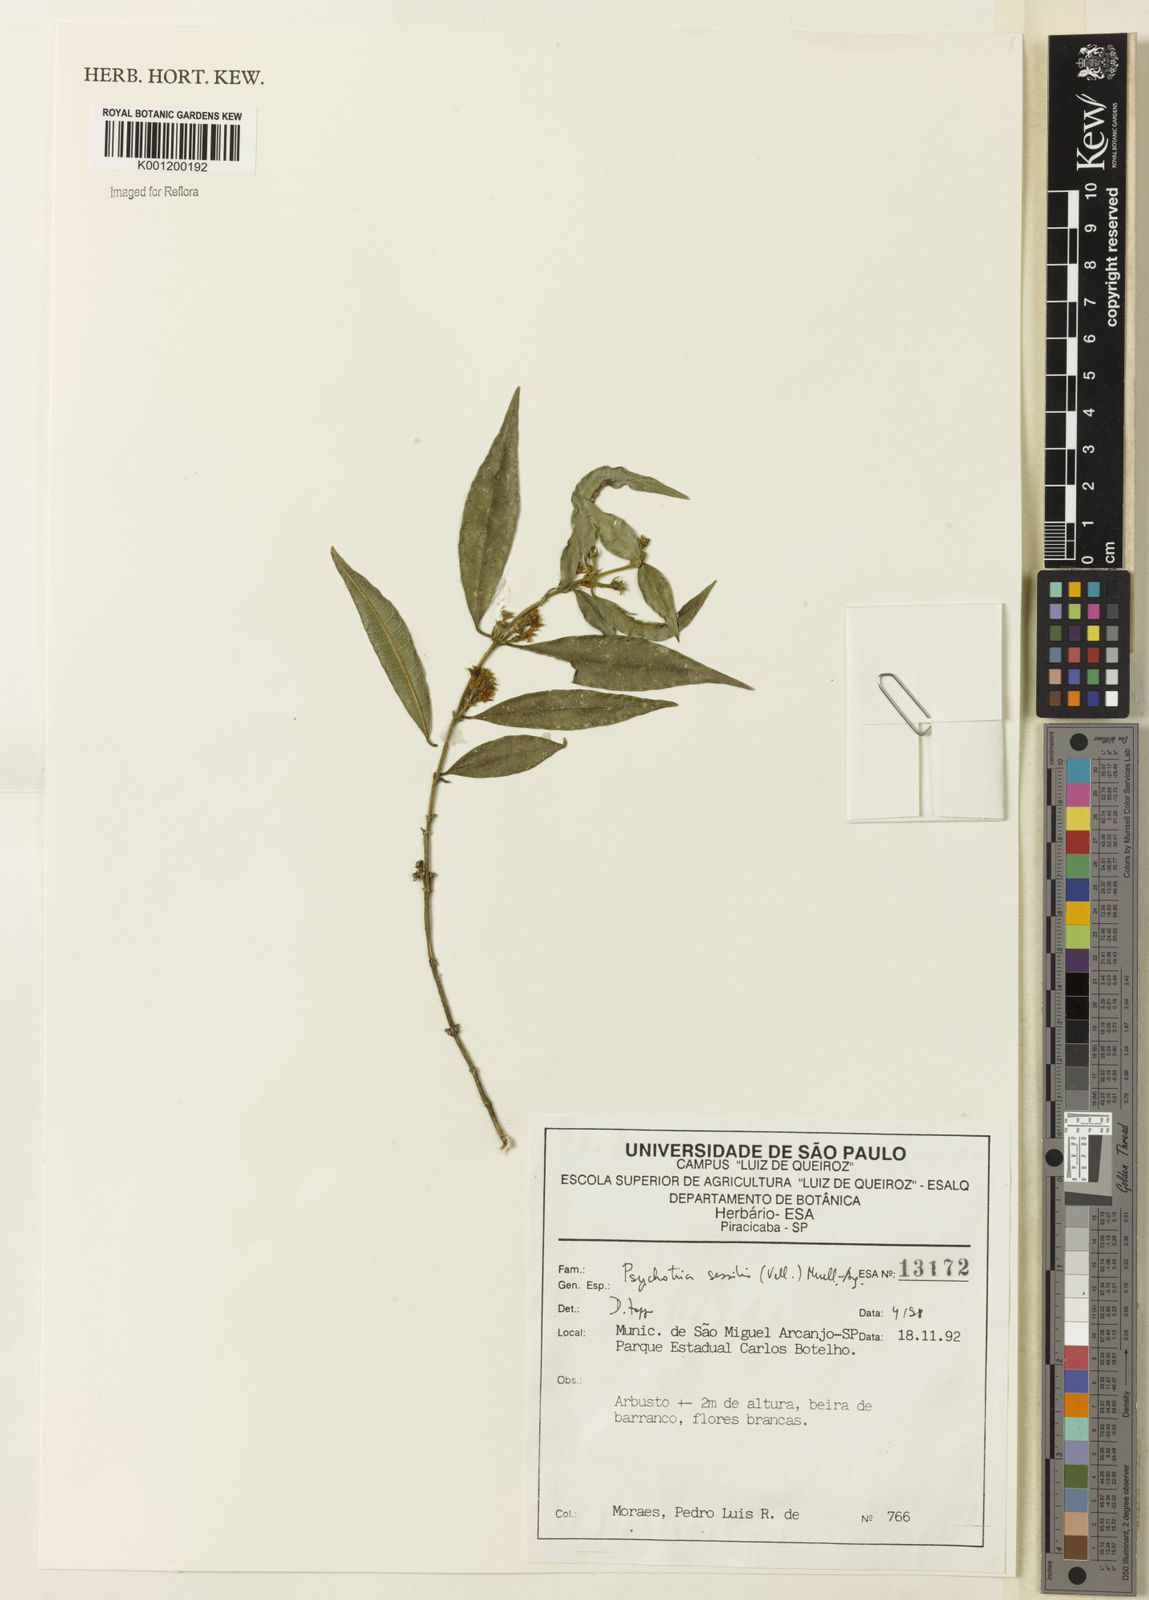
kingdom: Plantae
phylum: Tracheophyta
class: Magnoliopsida
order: Gentianales
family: Rubiaceae
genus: Rudgea
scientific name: Rudgea sessilis
